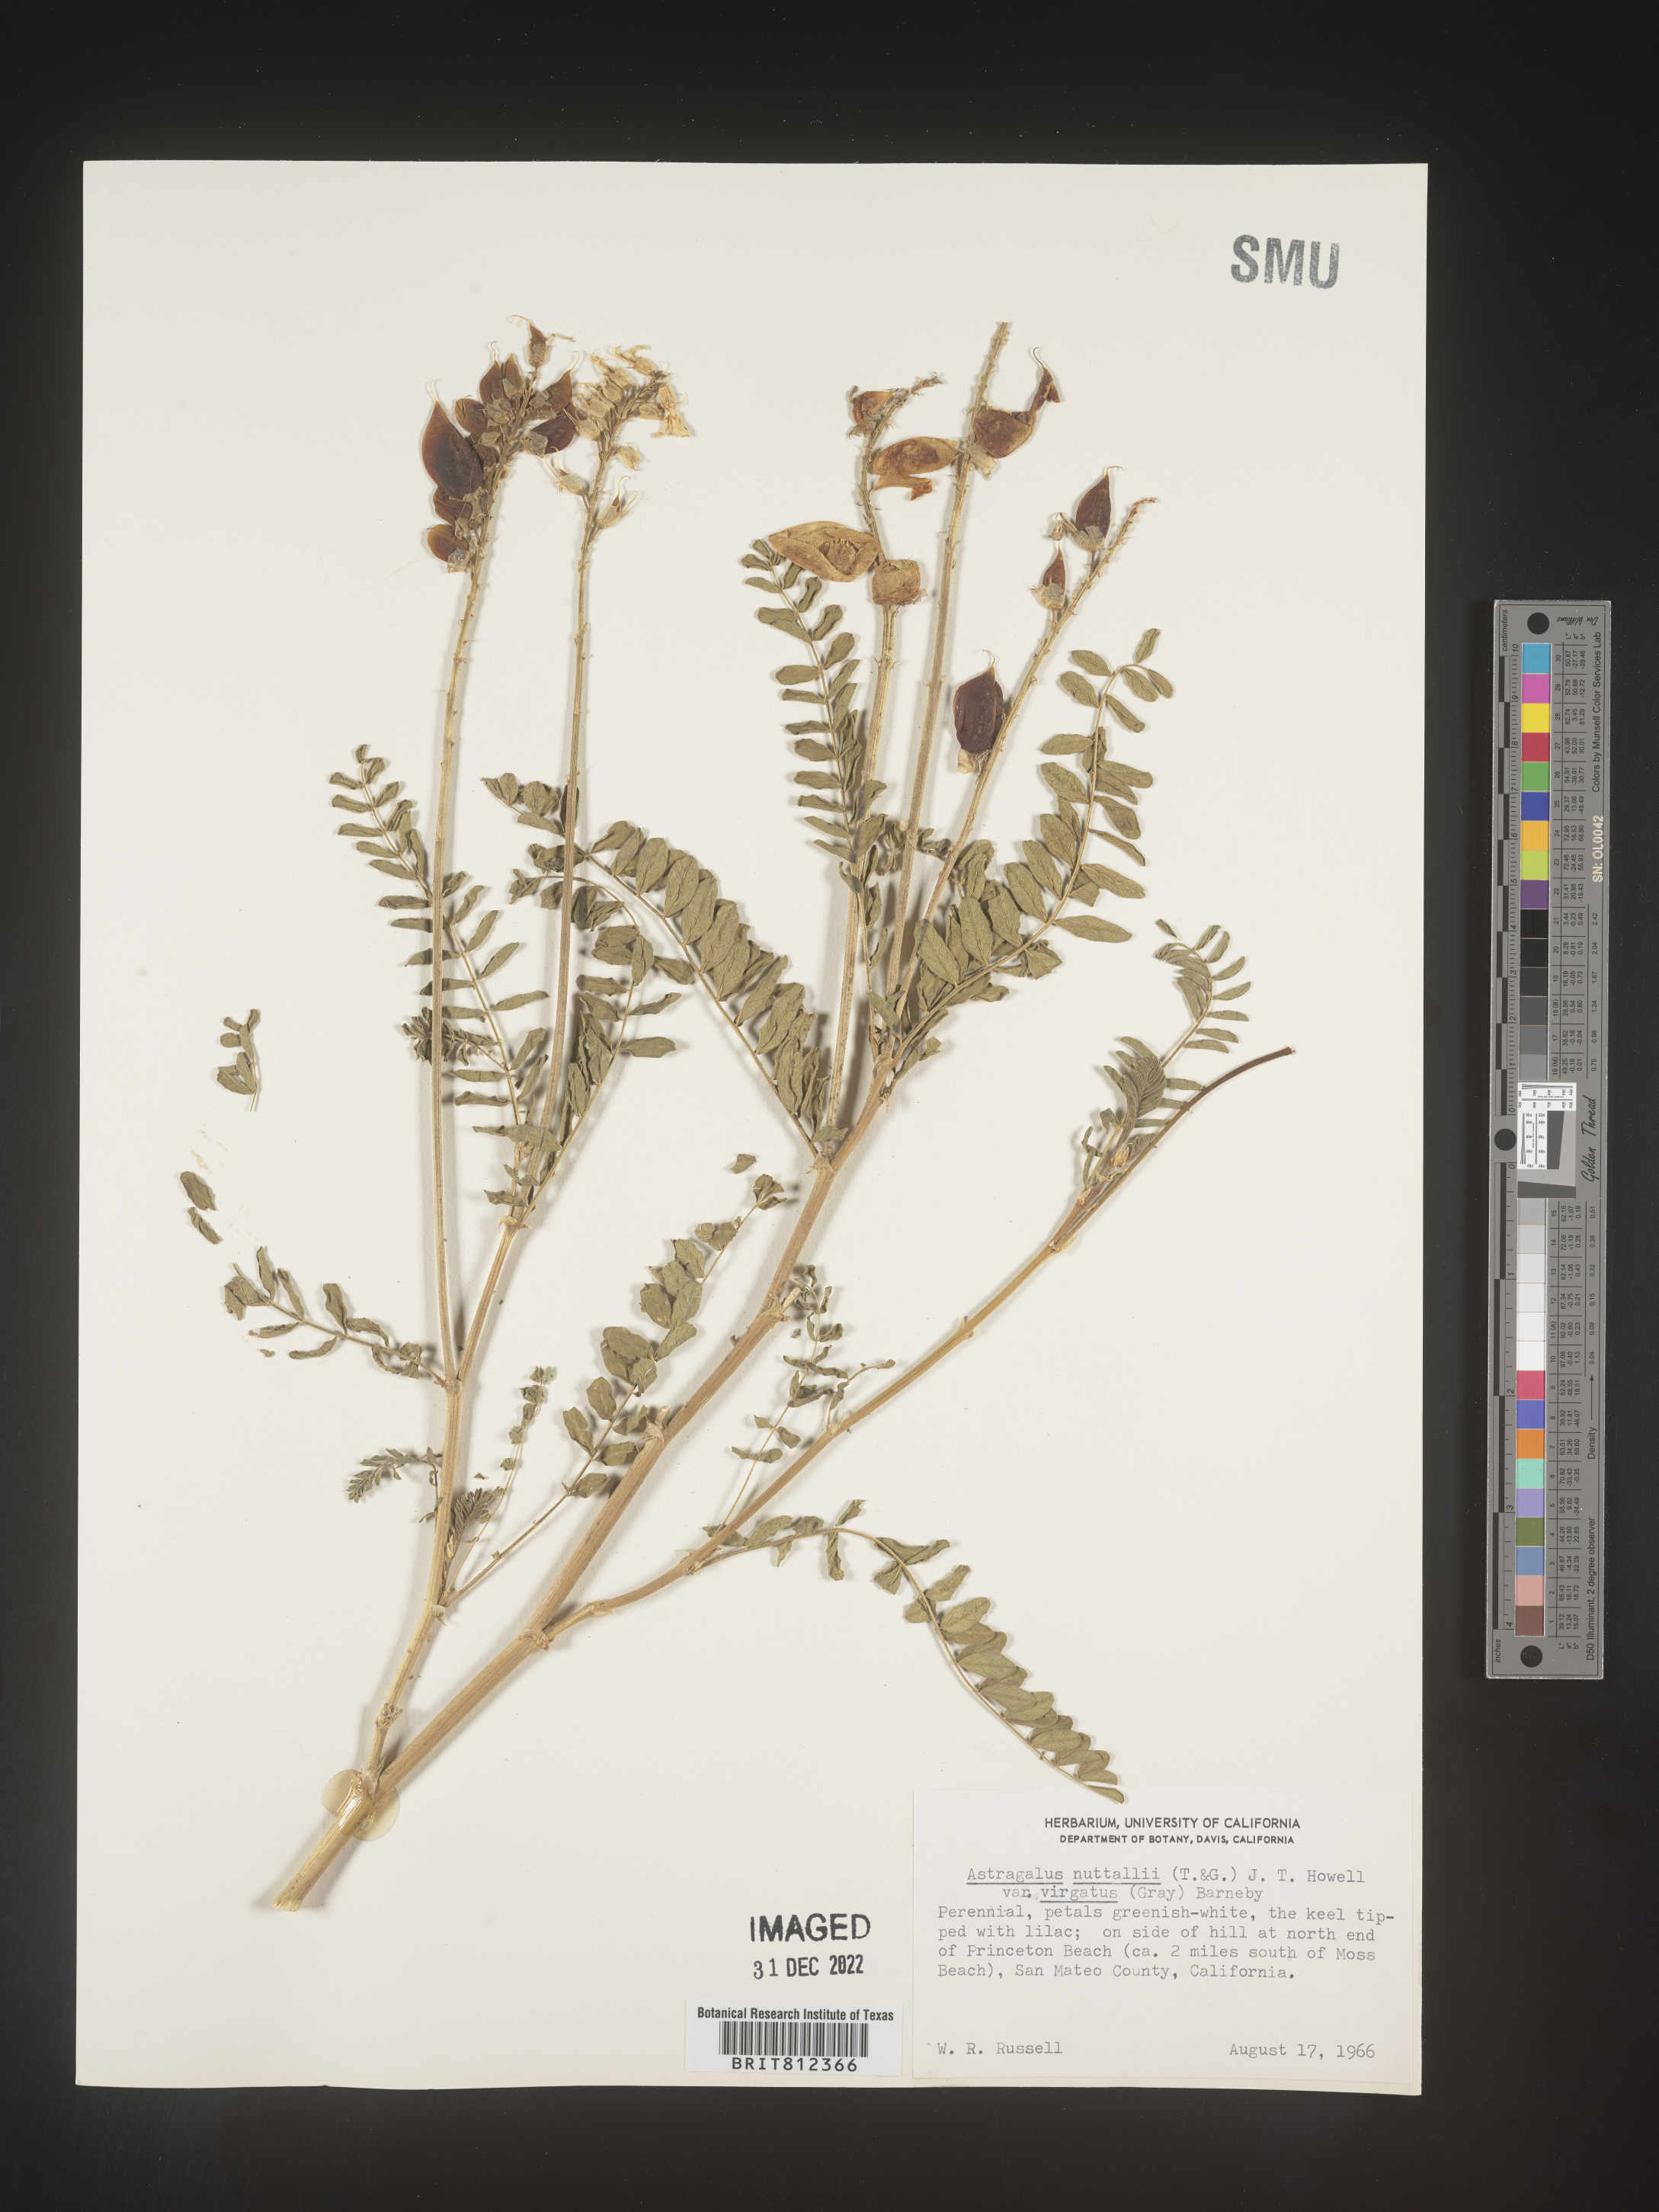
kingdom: Plantae
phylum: Tracheophyta
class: Magnoliopsida
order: Fabales
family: Fabaceae
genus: Astragalus
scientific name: Astragalus nuttallii
